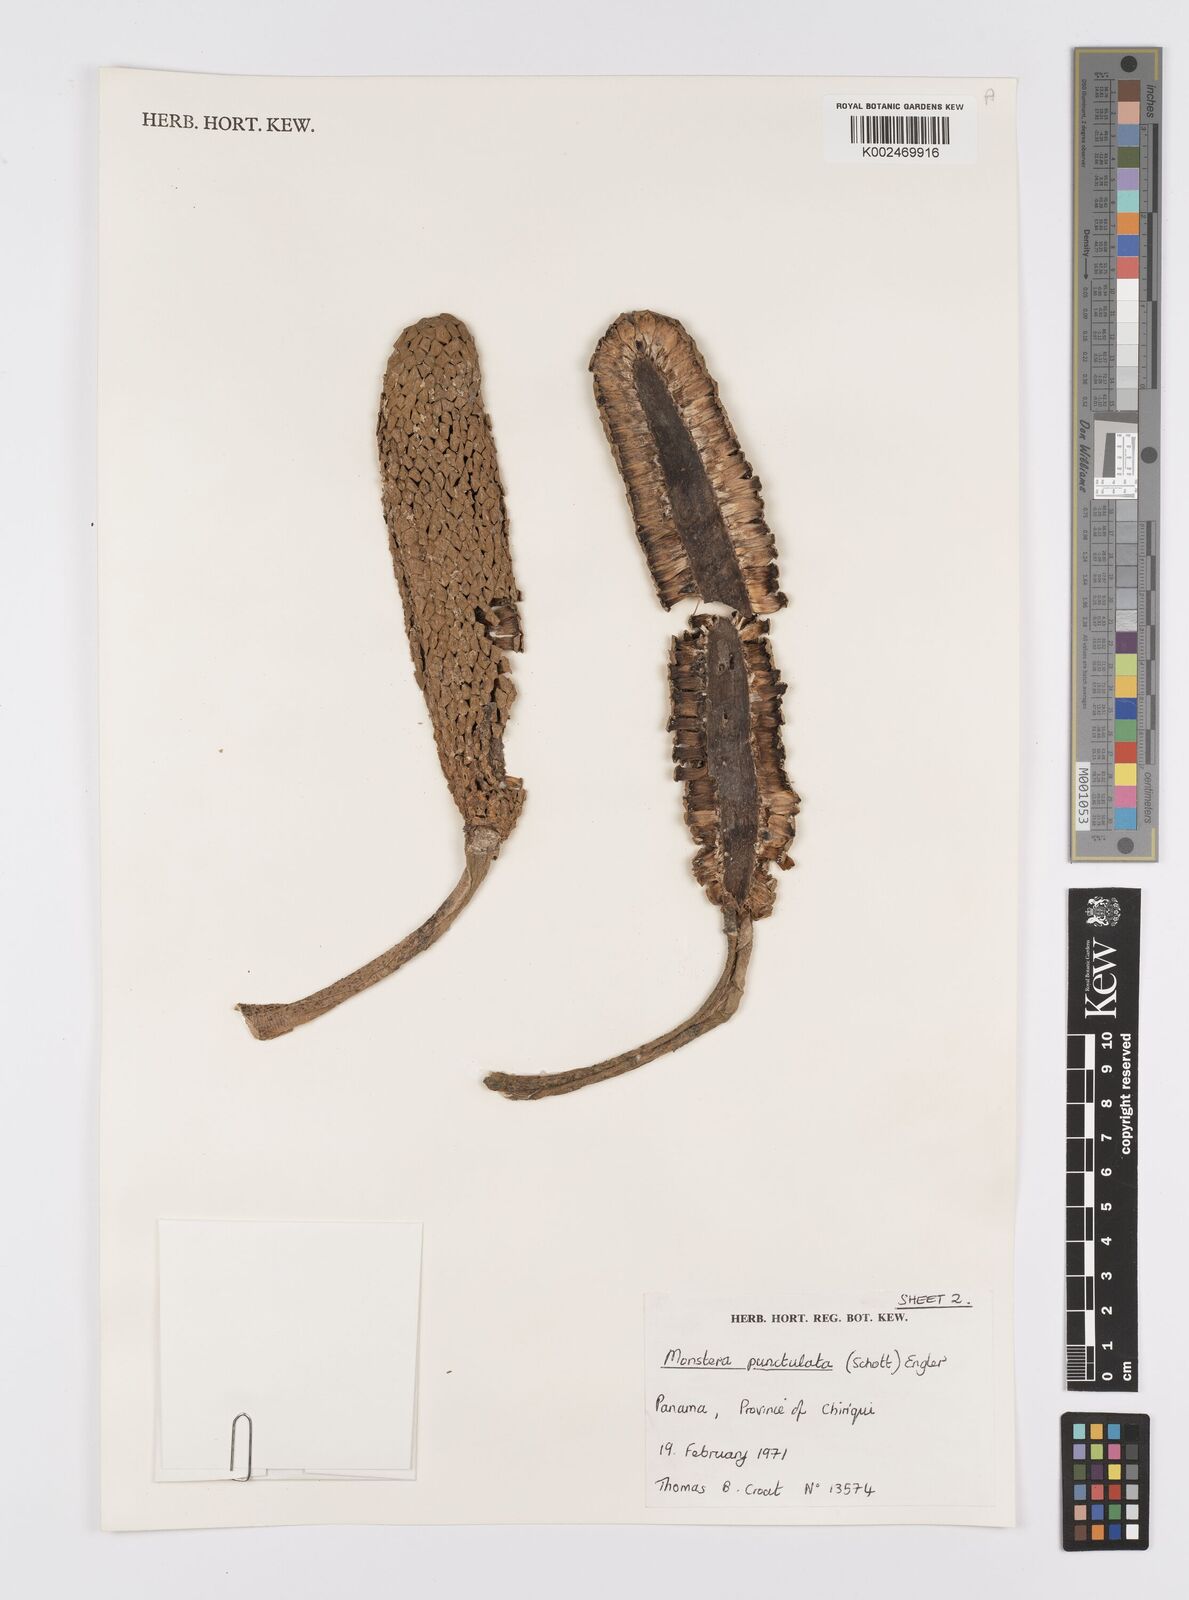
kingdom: Plantae
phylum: Tracheophyta
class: Liliopsida
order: Alismatales
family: Araceae
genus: Monstera
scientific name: Monstera punctulata
